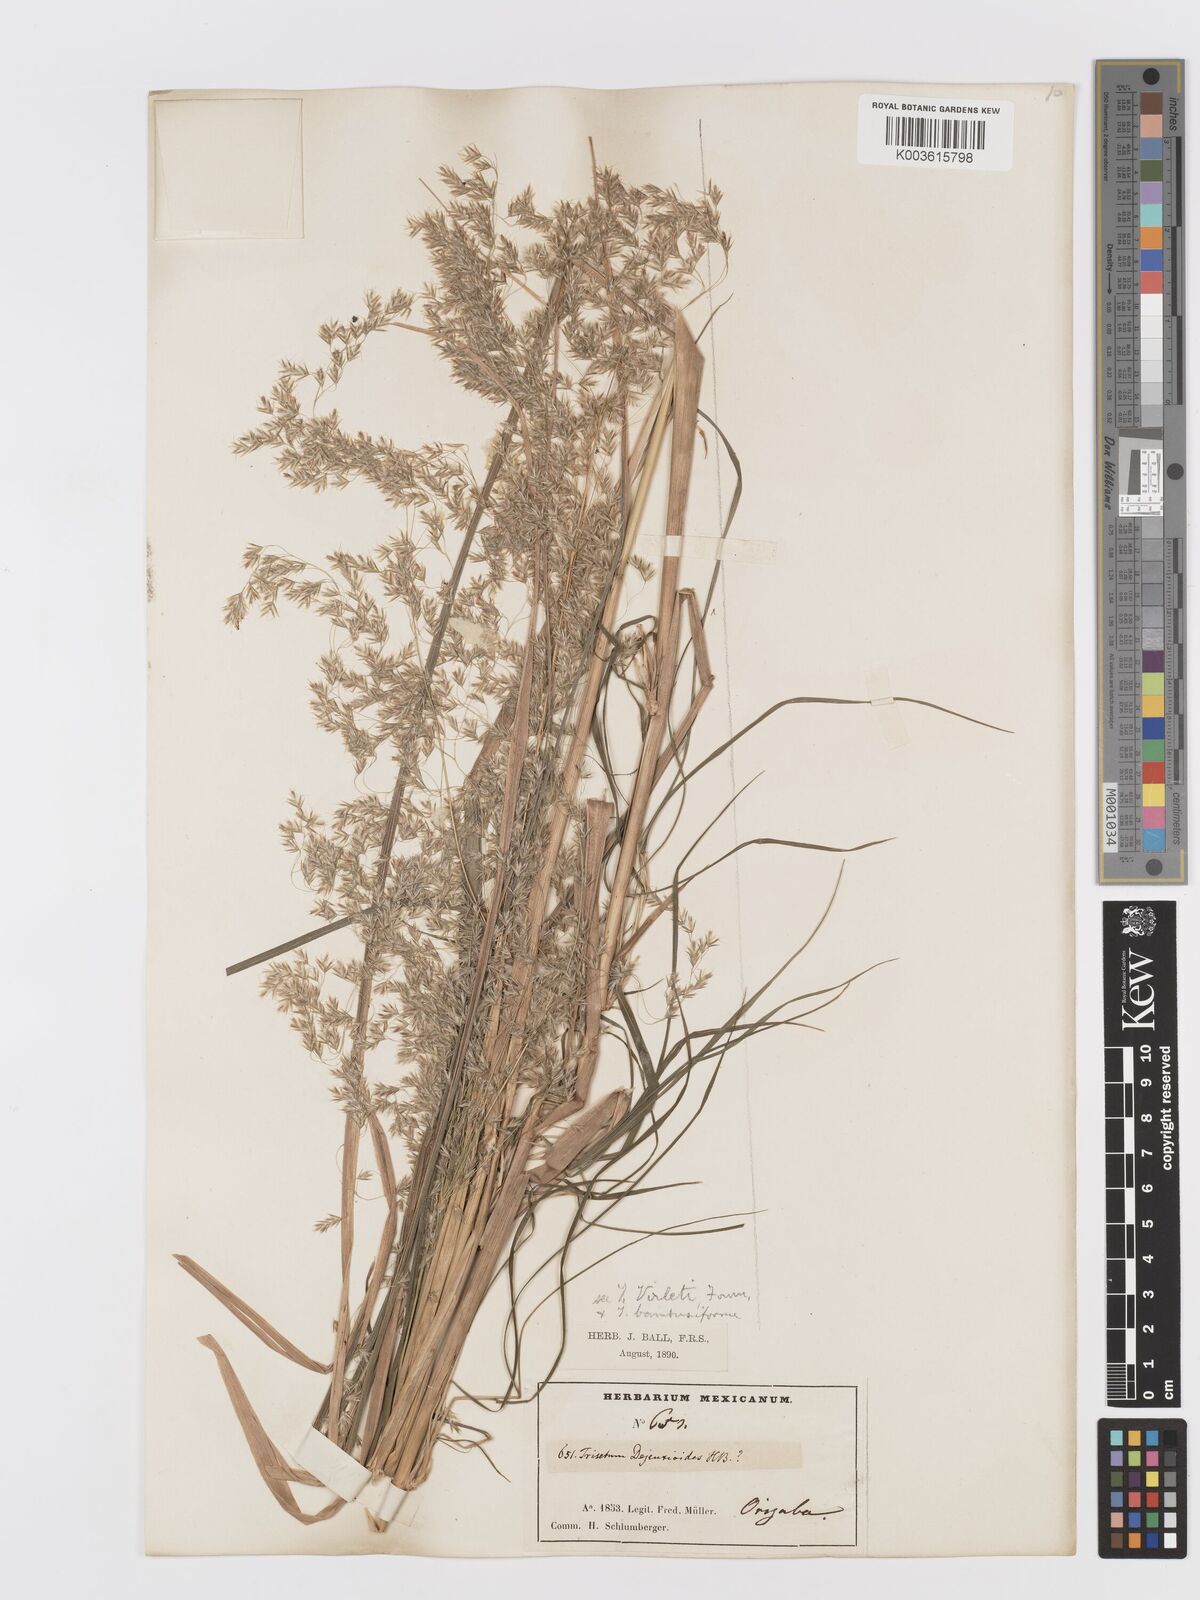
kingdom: Plantae
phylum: Tracheophyta
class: Liliopsida
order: Poales
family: Poaceae
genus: Peyritschia
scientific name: Peyritschia virletii
